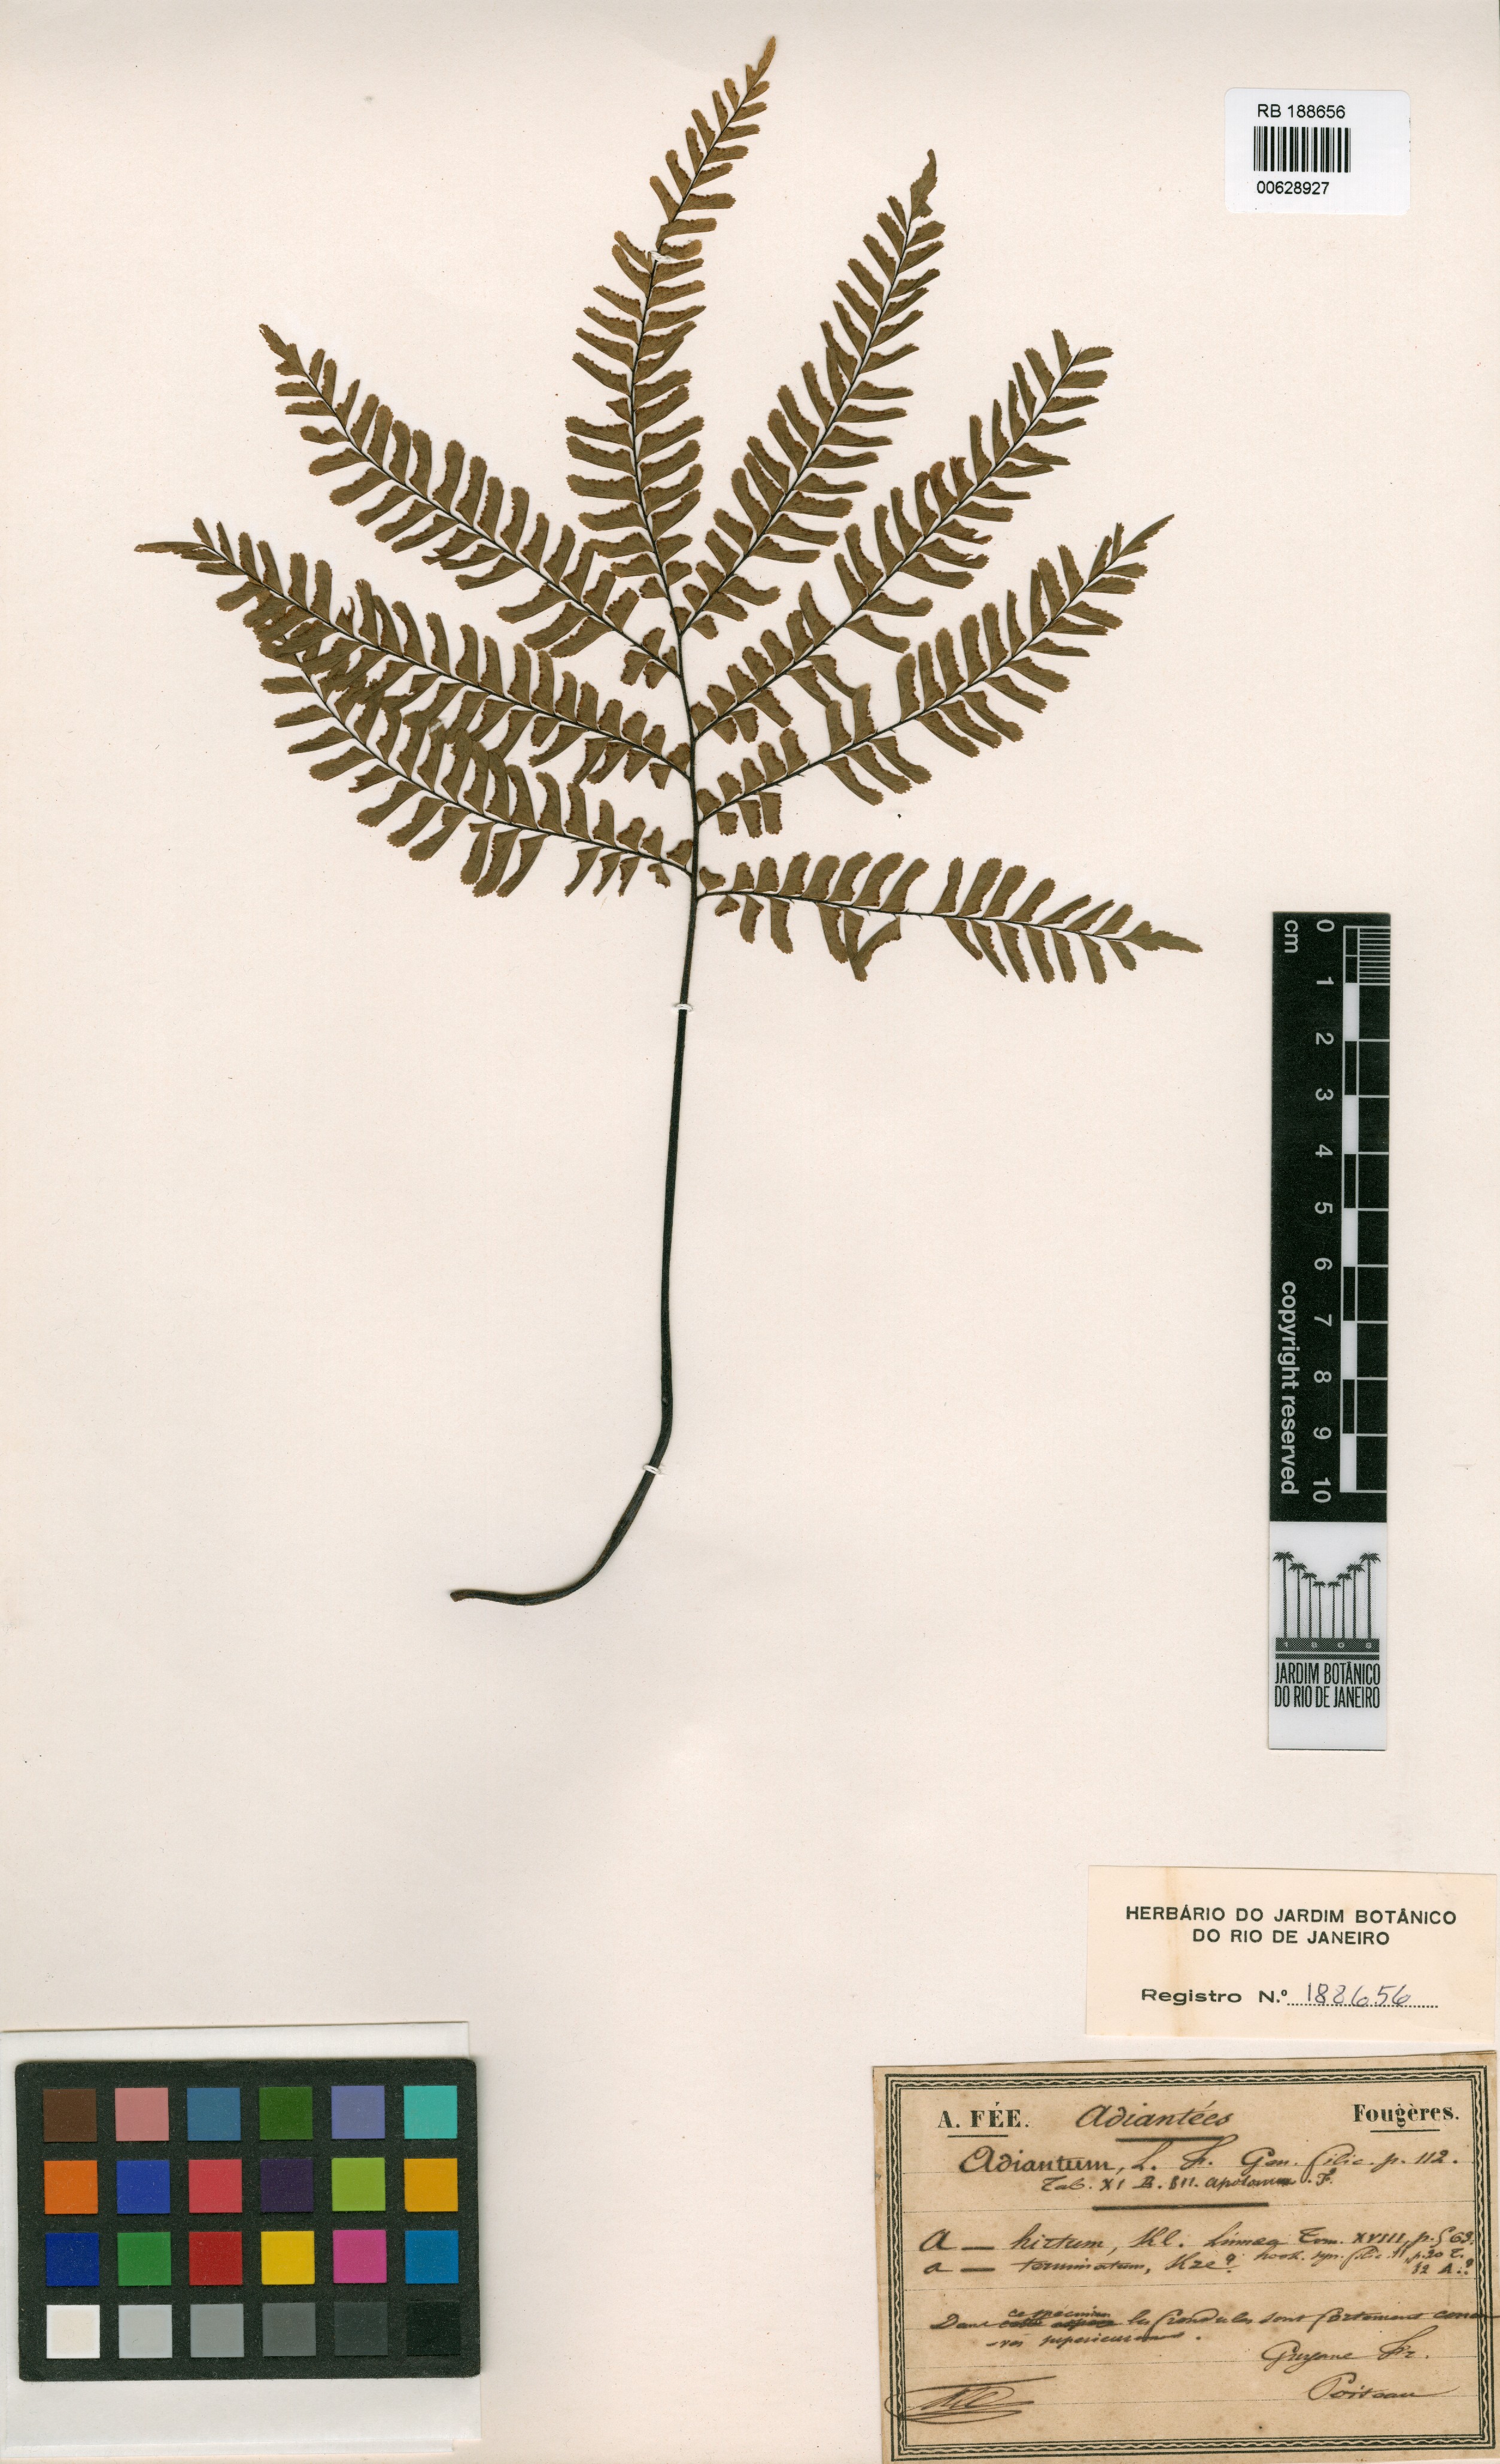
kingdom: Plantae
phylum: Tracheophyta
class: Polypodiopsida
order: Polypodiales
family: Pteridaceae
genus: Adiantum
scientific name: Adiantum fuliginosum
